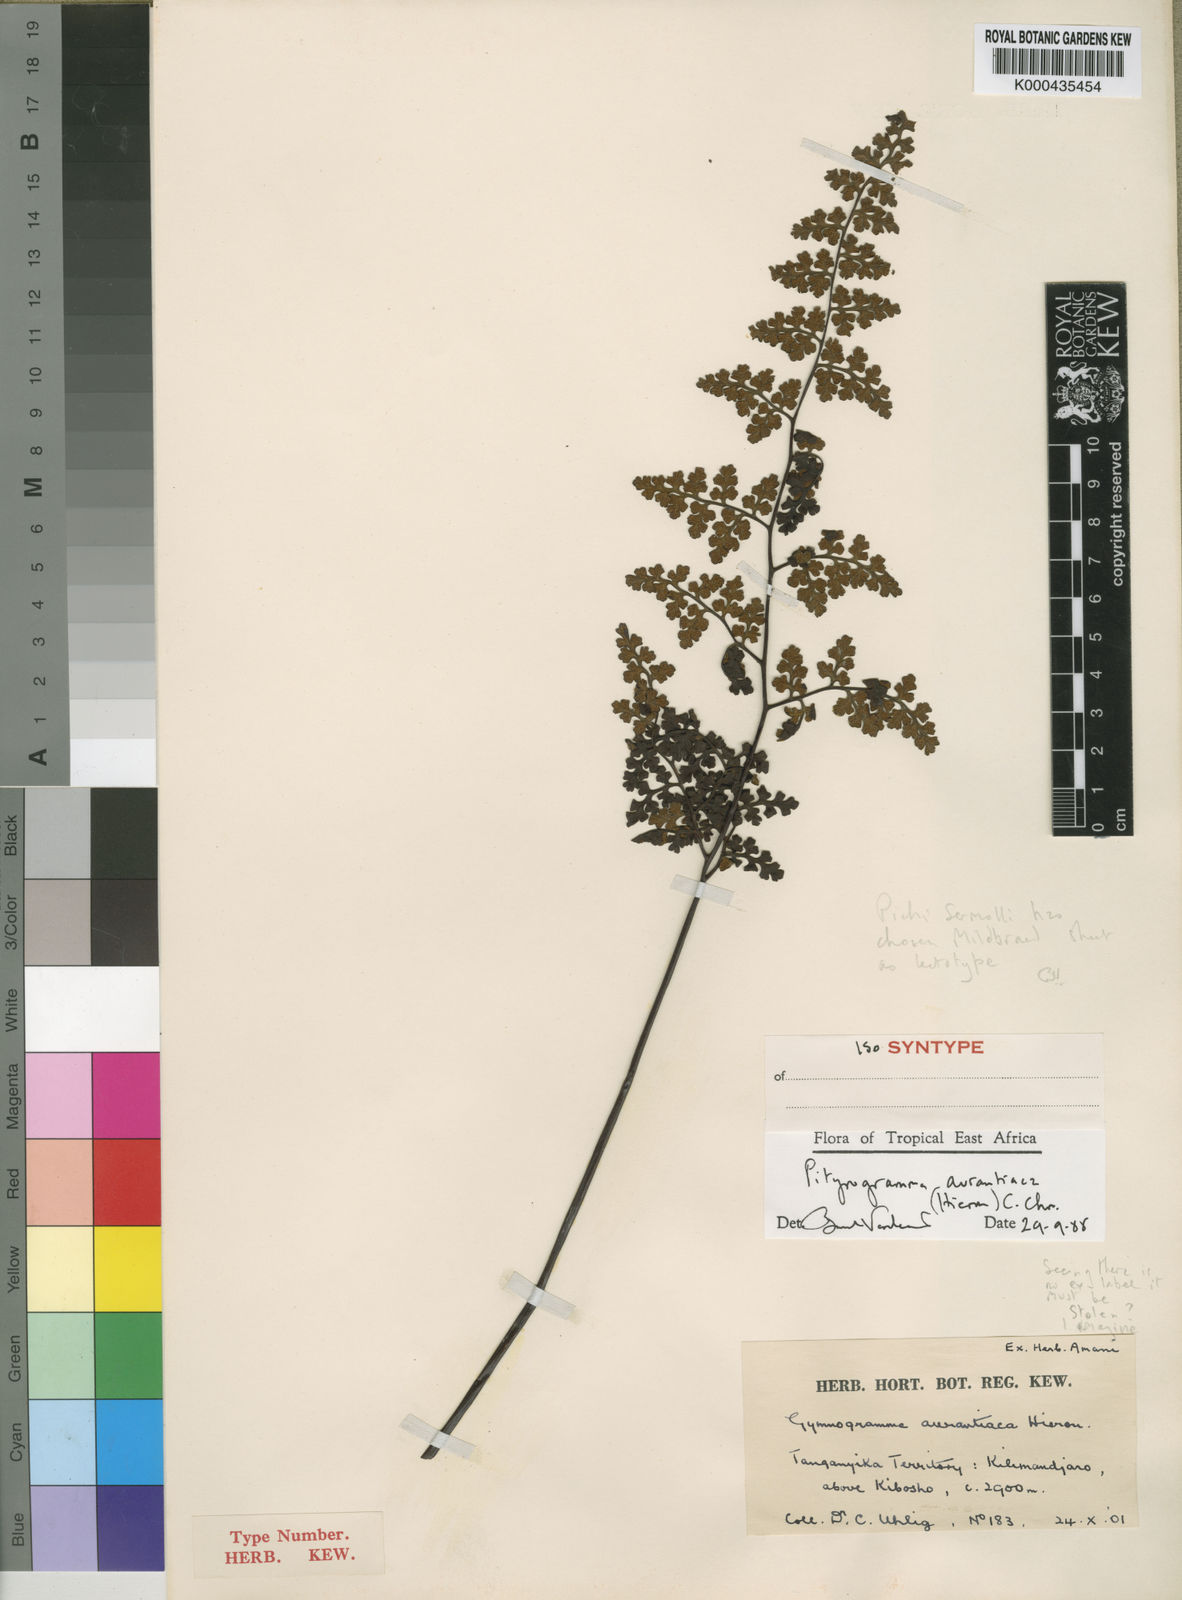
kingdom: Plantae
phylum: Tracheophyta
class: Polypodiopsida
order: Polypodiales
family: Pteridaceae
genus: Pityrogramma
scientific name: Pityrogramma aurantiaca
